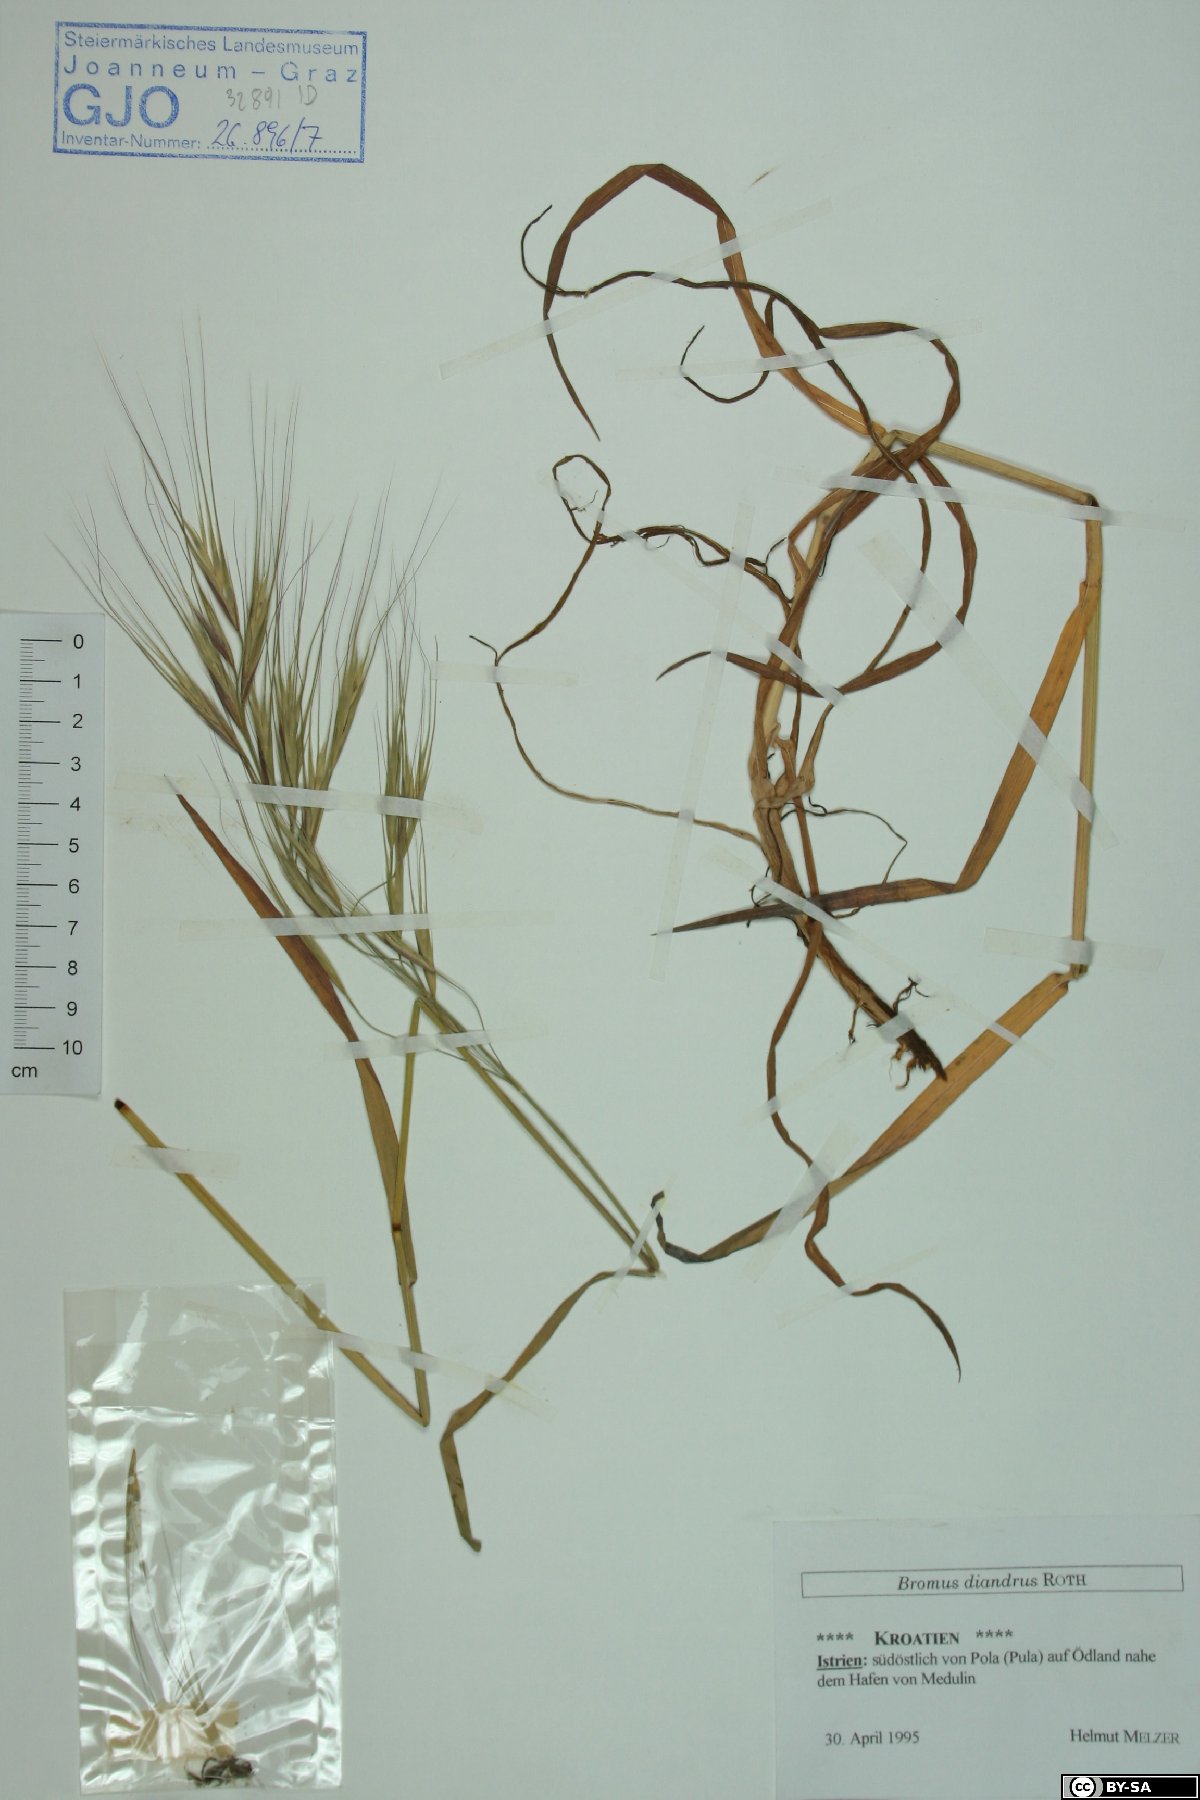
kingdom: Plantae
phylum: Tracheophyta
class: Liliopsida
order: Poales
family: Poaceae
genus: Bromus
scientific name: Bromus diandrus
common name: Ripgut brome
